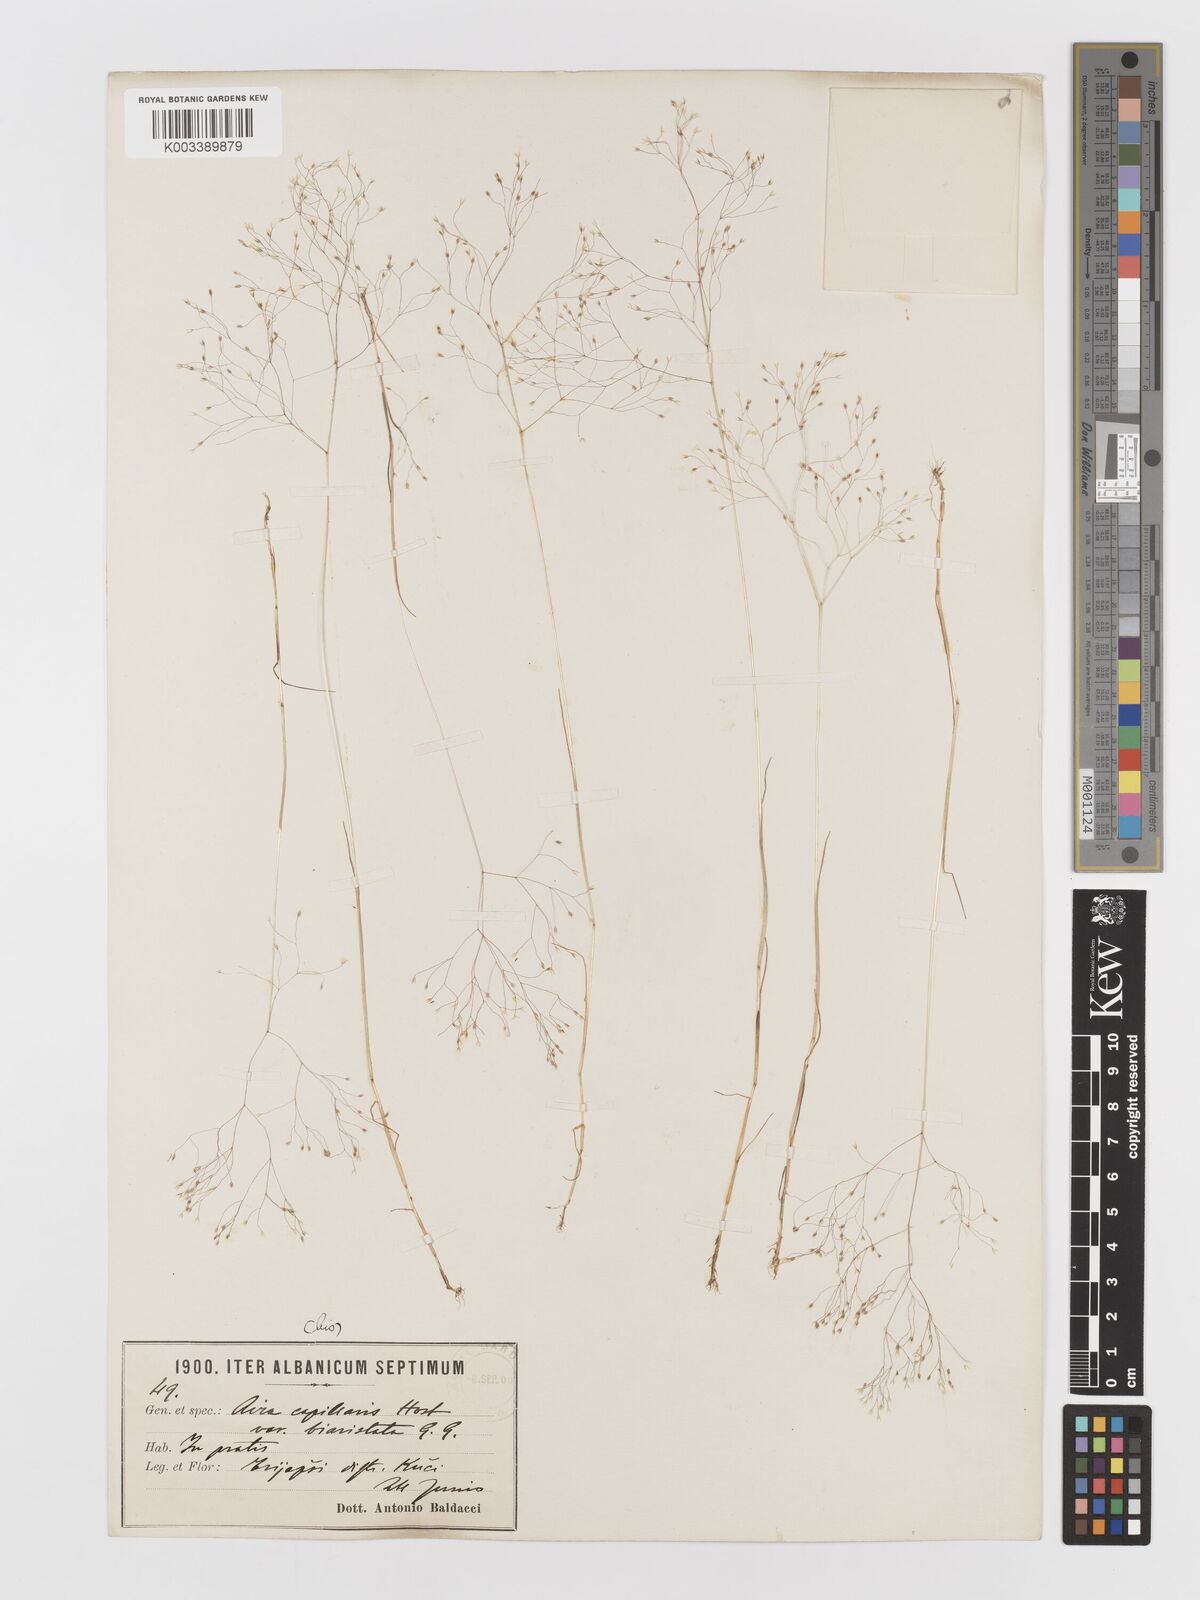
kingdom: Plantae
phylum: Tracheophyta
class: Liliopsida
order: Poales
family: Poaceae
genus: Aira
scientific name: Aira elegans
